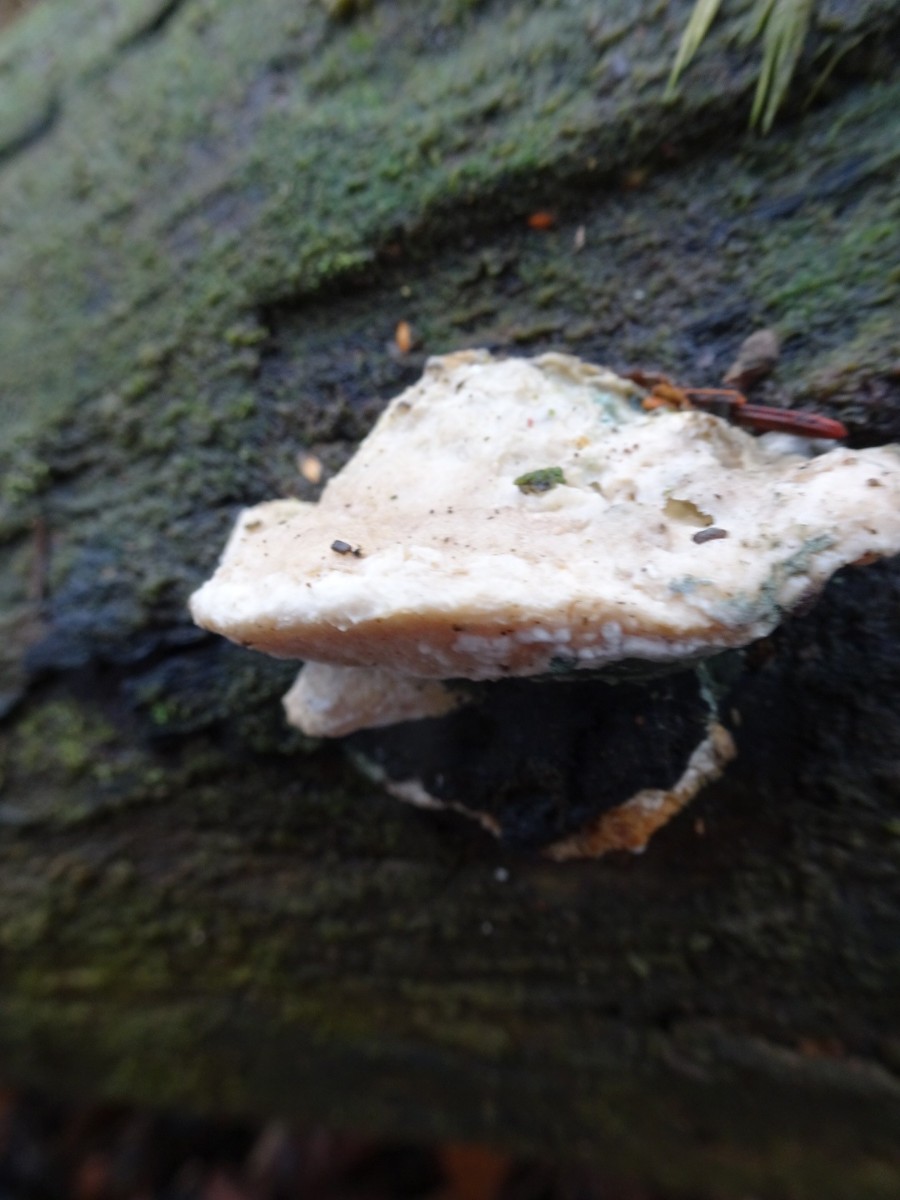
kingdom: Fungi
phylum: Basidiomycota
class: Agaricomycetes
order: Polyporales
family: Incrustoporiaceae
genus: Tyromyces
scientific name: Tyromyces lacteus
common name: mælkehvid kødporesvamp
